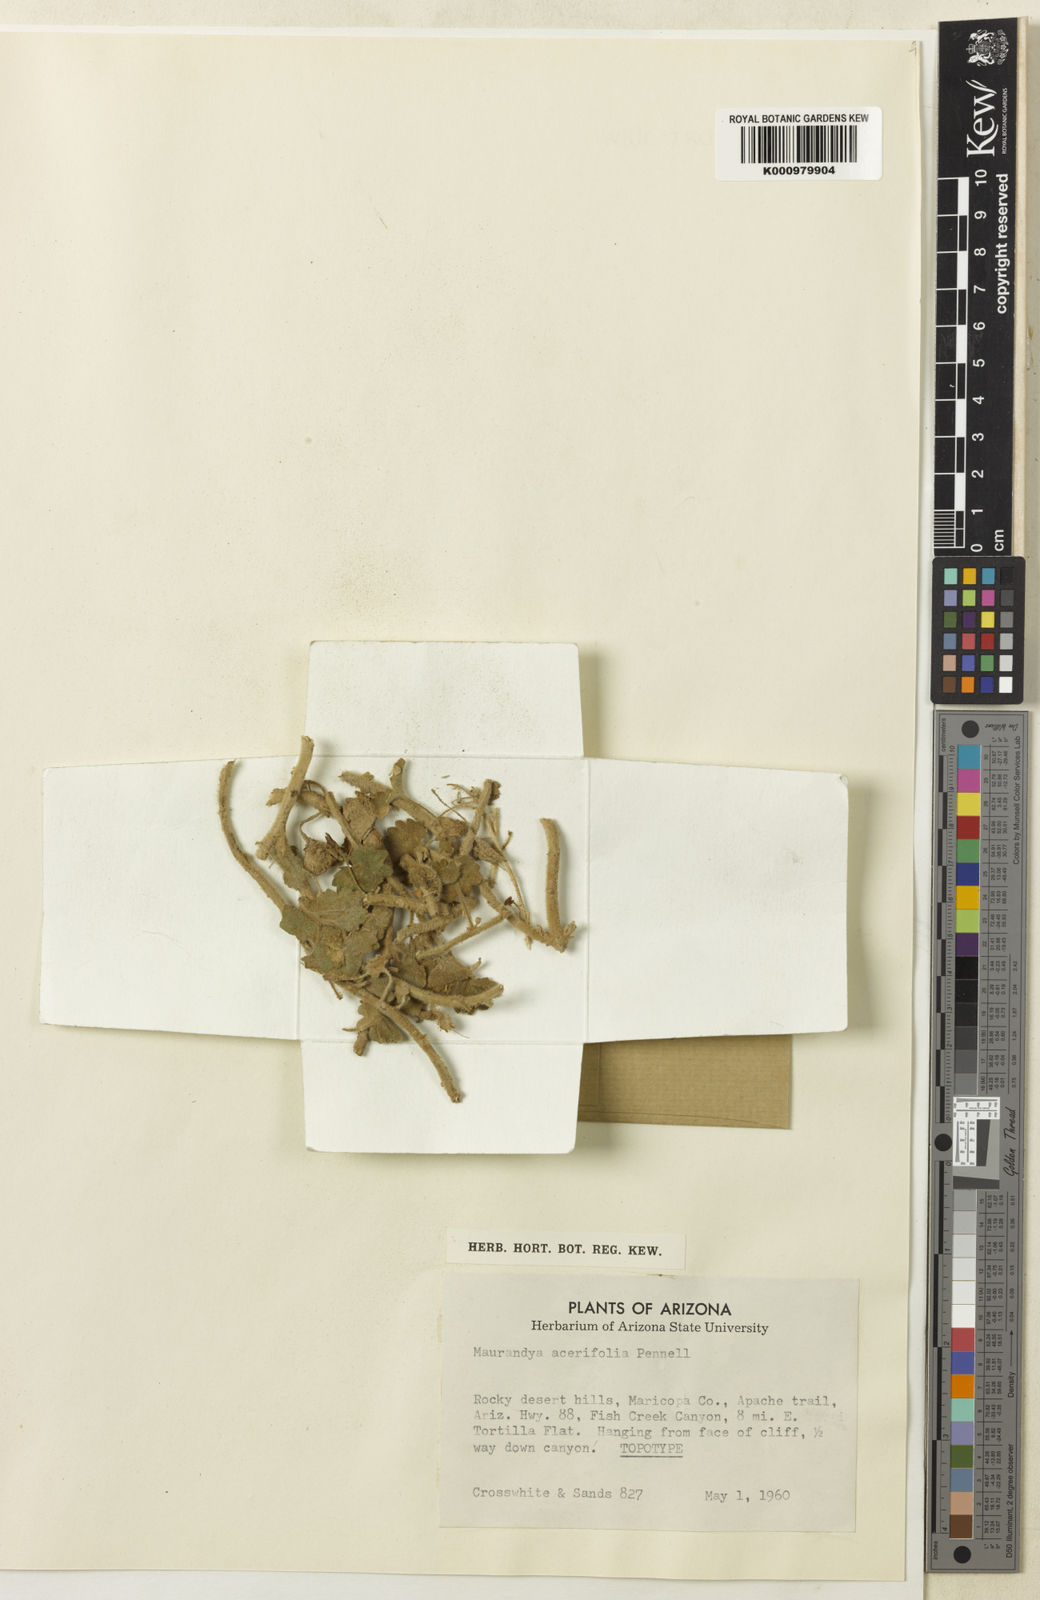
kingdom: Plantae
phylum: Tracheophyta
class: Magnoliopsida
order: Lamiales
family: Plantaginaceae
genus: Mabrya
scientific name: Mabrya acerifolia
